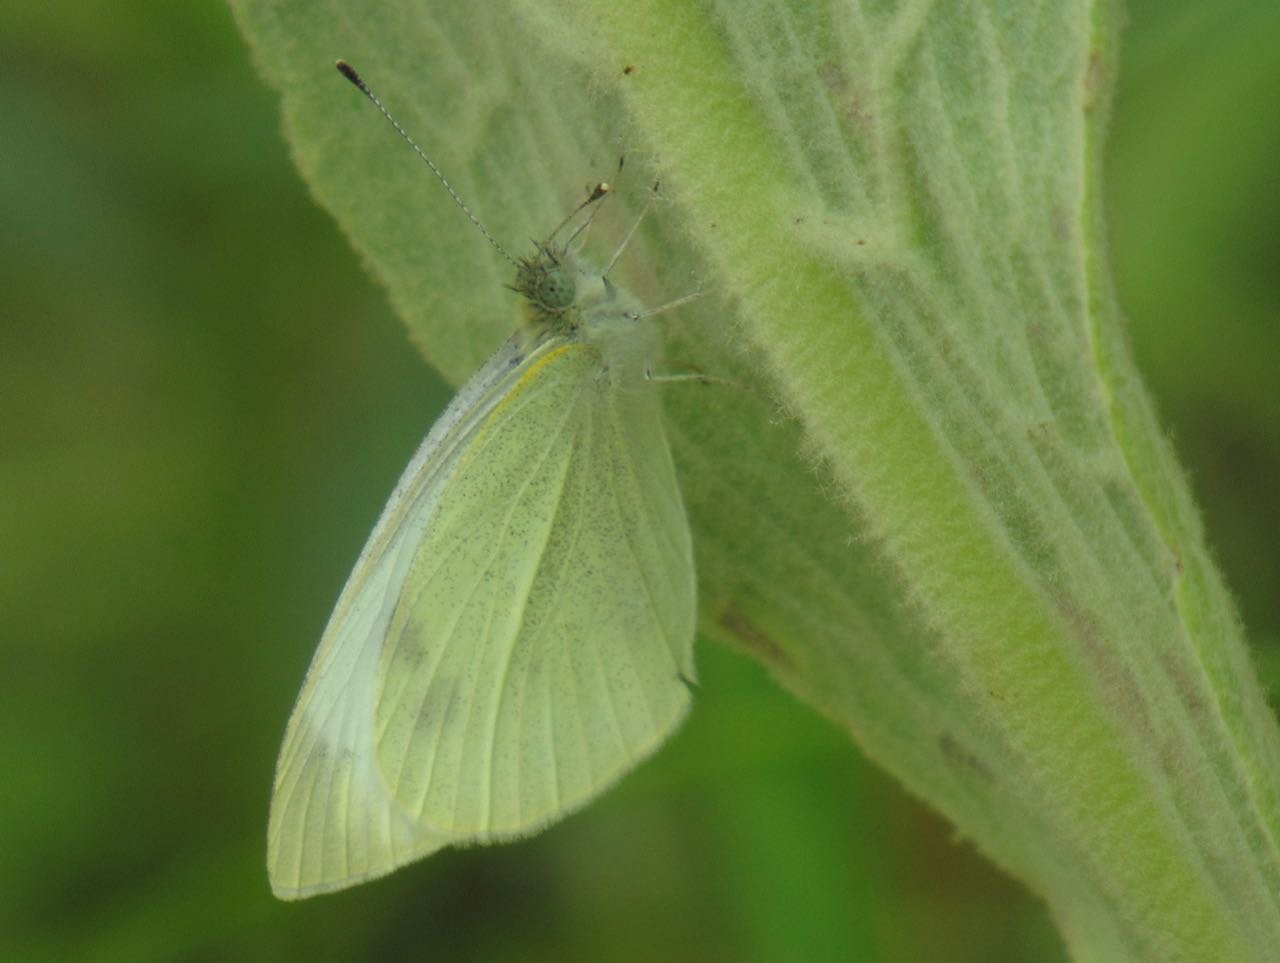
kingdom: Animalia
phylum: Arthropoda
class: Insecta
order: Lepidoptera
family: Pieridae
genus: Pieris
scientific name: Pieris rapae
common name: Cabbage White
